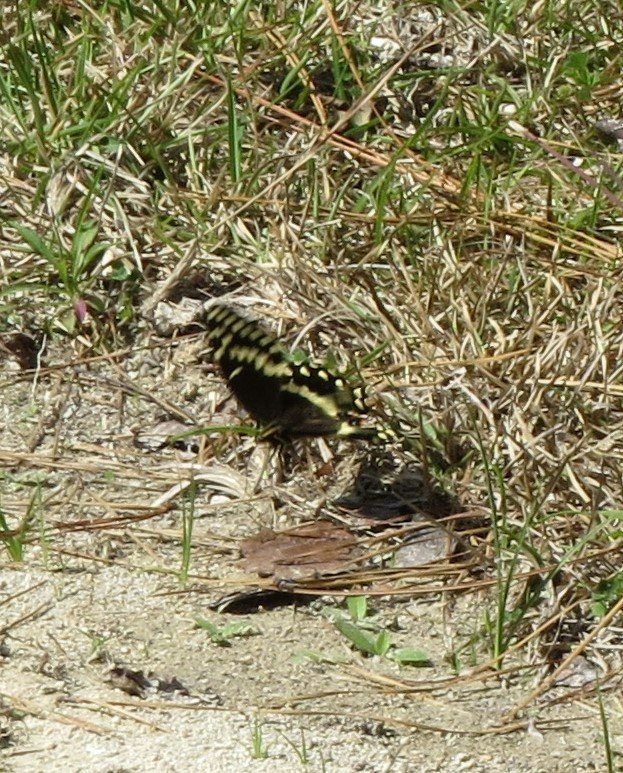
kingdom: Animalia
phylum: Arthropoda
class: Insecta
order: Lepidoptera
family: Papilionidae
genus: Pterourus
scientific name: Pterourus palamedes
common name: Palamedes Swallowtail
